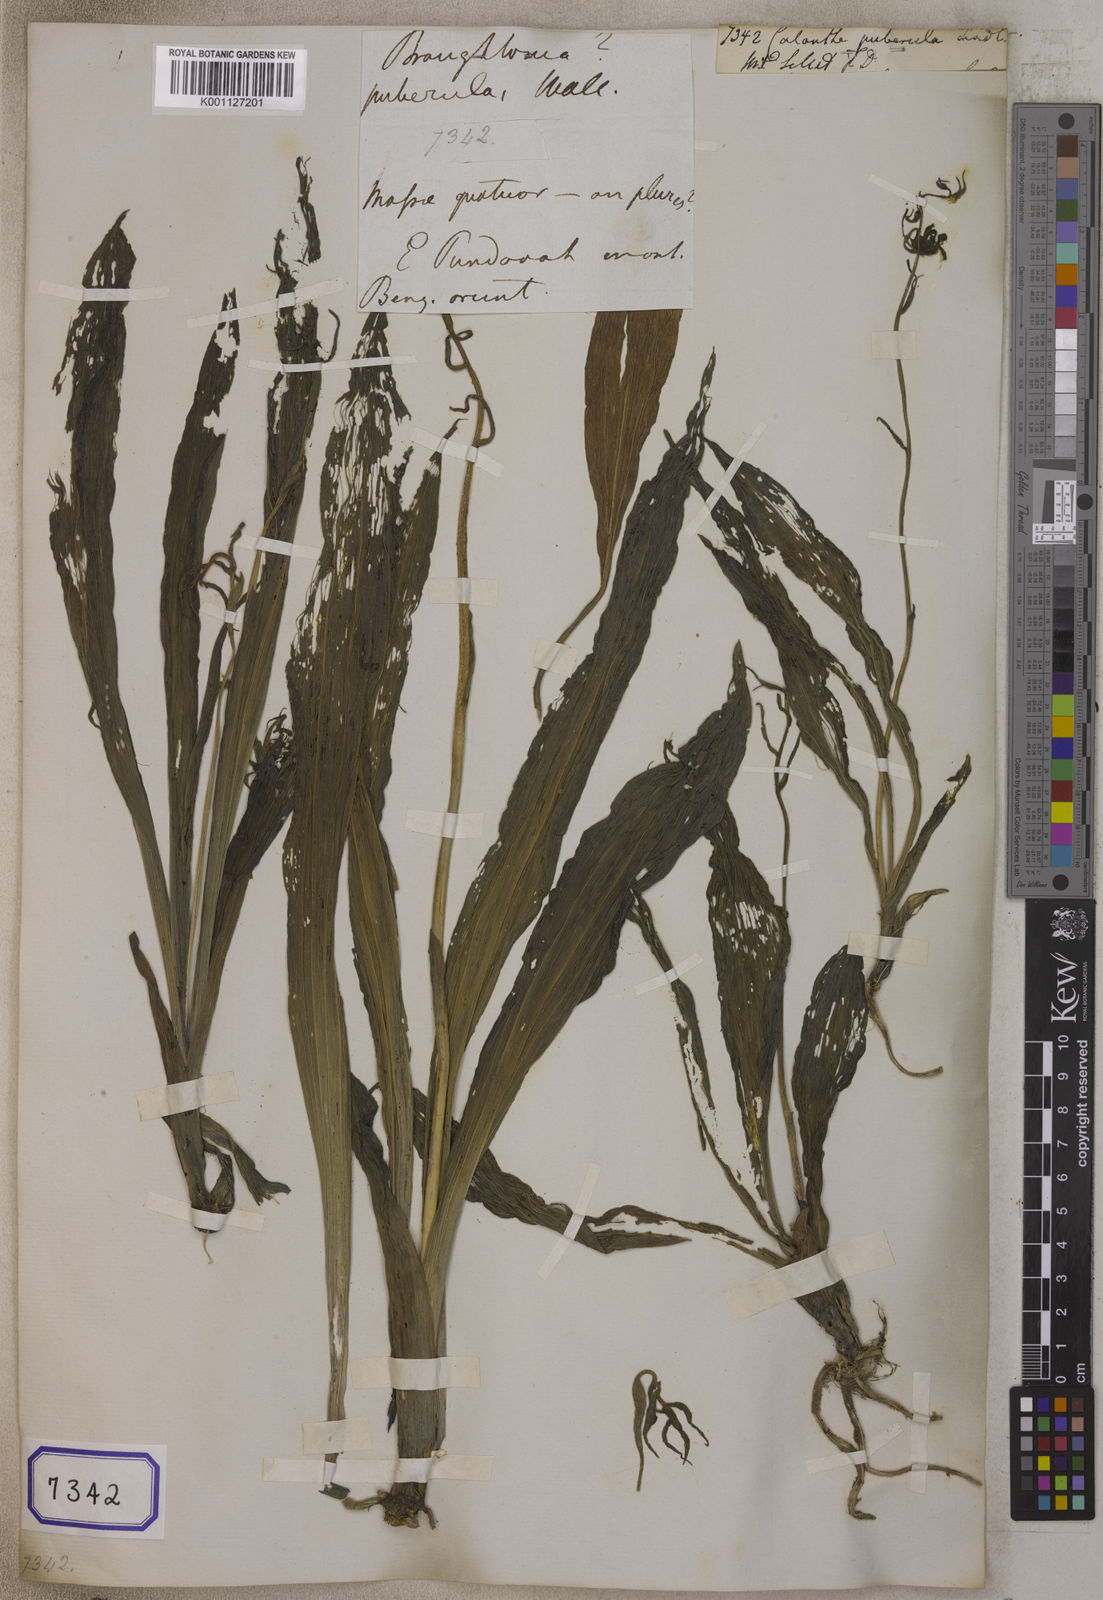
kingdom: Plantae
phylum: Tracheophyta
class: Liliopsida
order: Asparagales
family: Orchidaceae
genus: Calanthe
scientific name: Calanthe puberula
